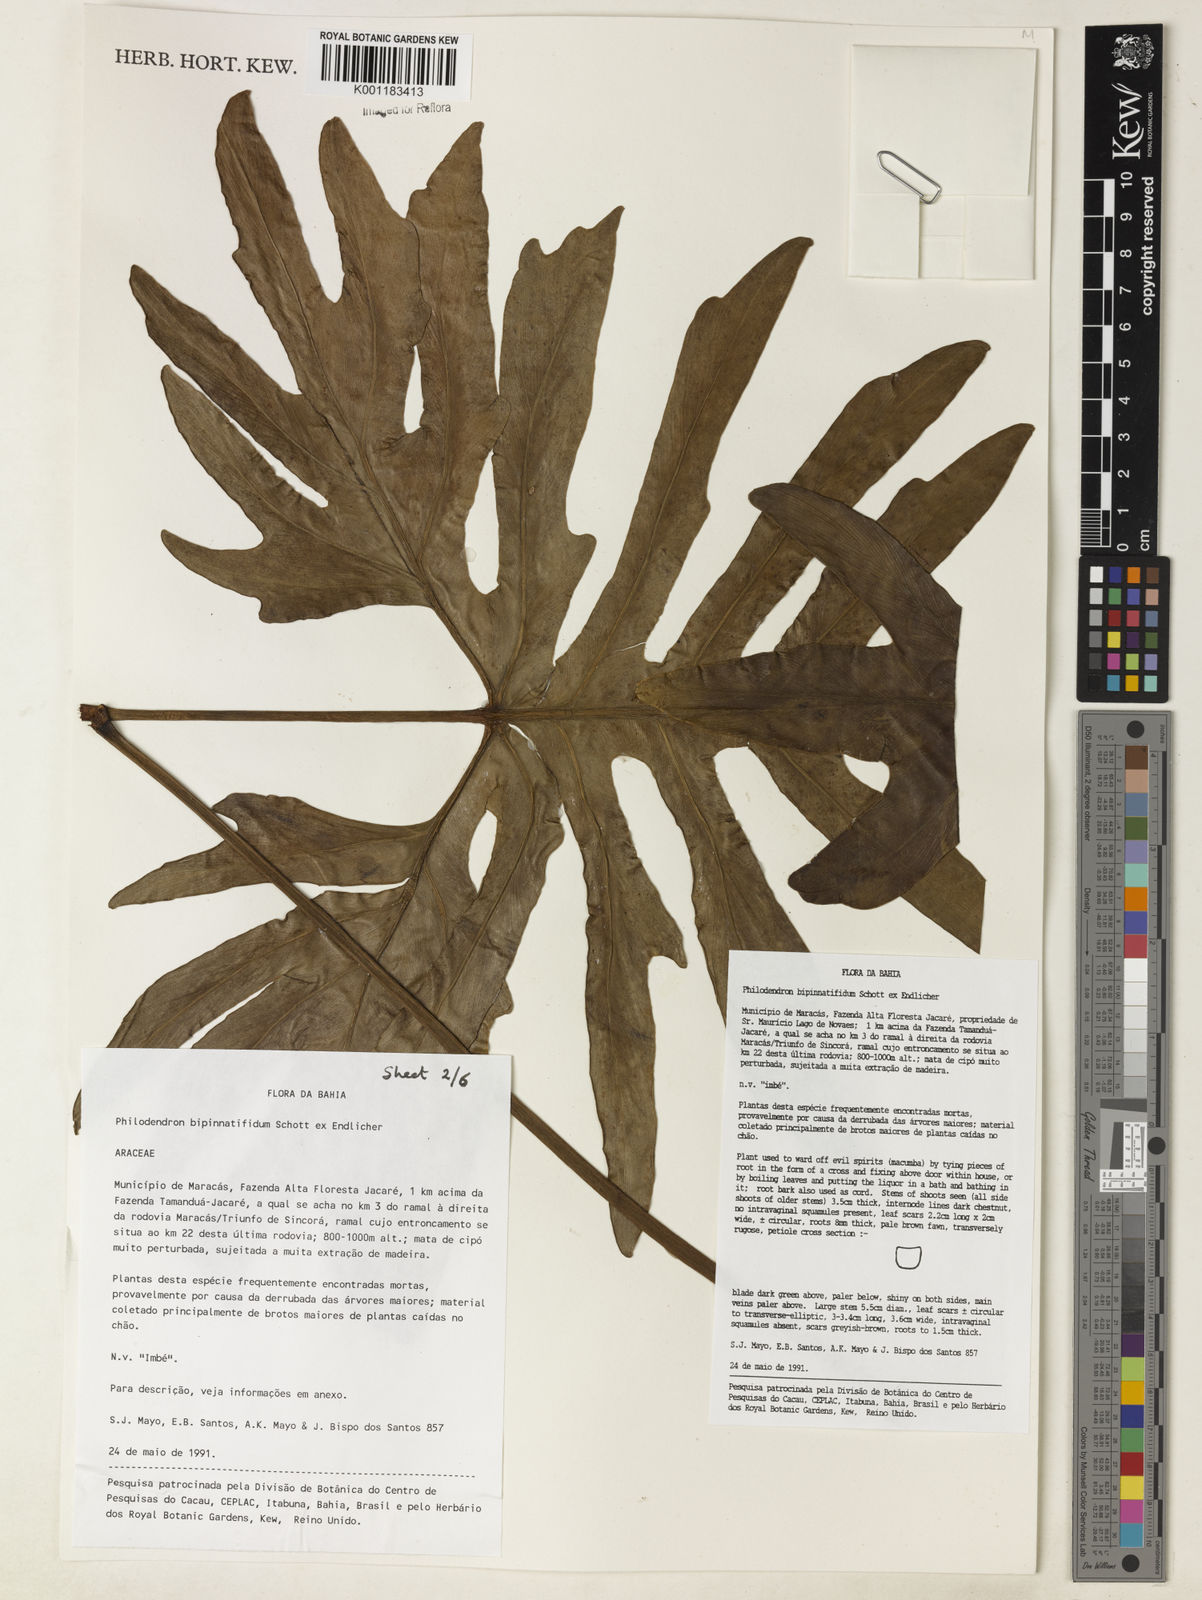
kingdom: Plantae
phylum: Tracheophyta
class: Liliopsida
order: Alismatales
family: Araceae
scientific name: Araceae
